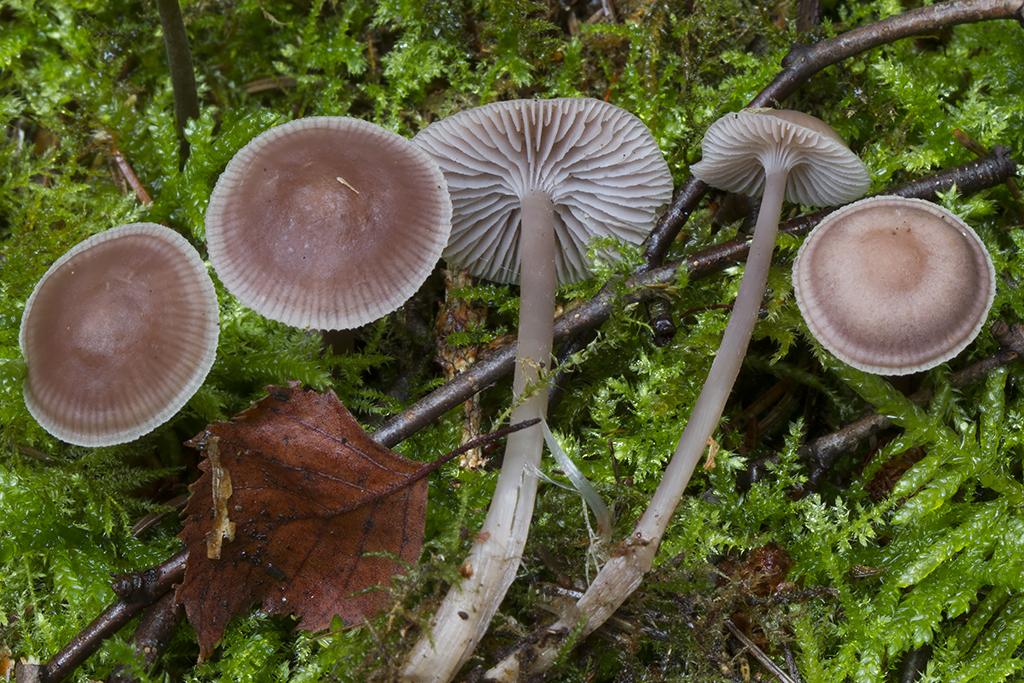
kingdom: Fungi
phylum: Basidiomycota
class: Agaricomycetes
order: Agaricales
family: Mycenaceae
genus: Mycena
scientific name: Mycena pearsoniana
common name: lillabrun huesvamp
